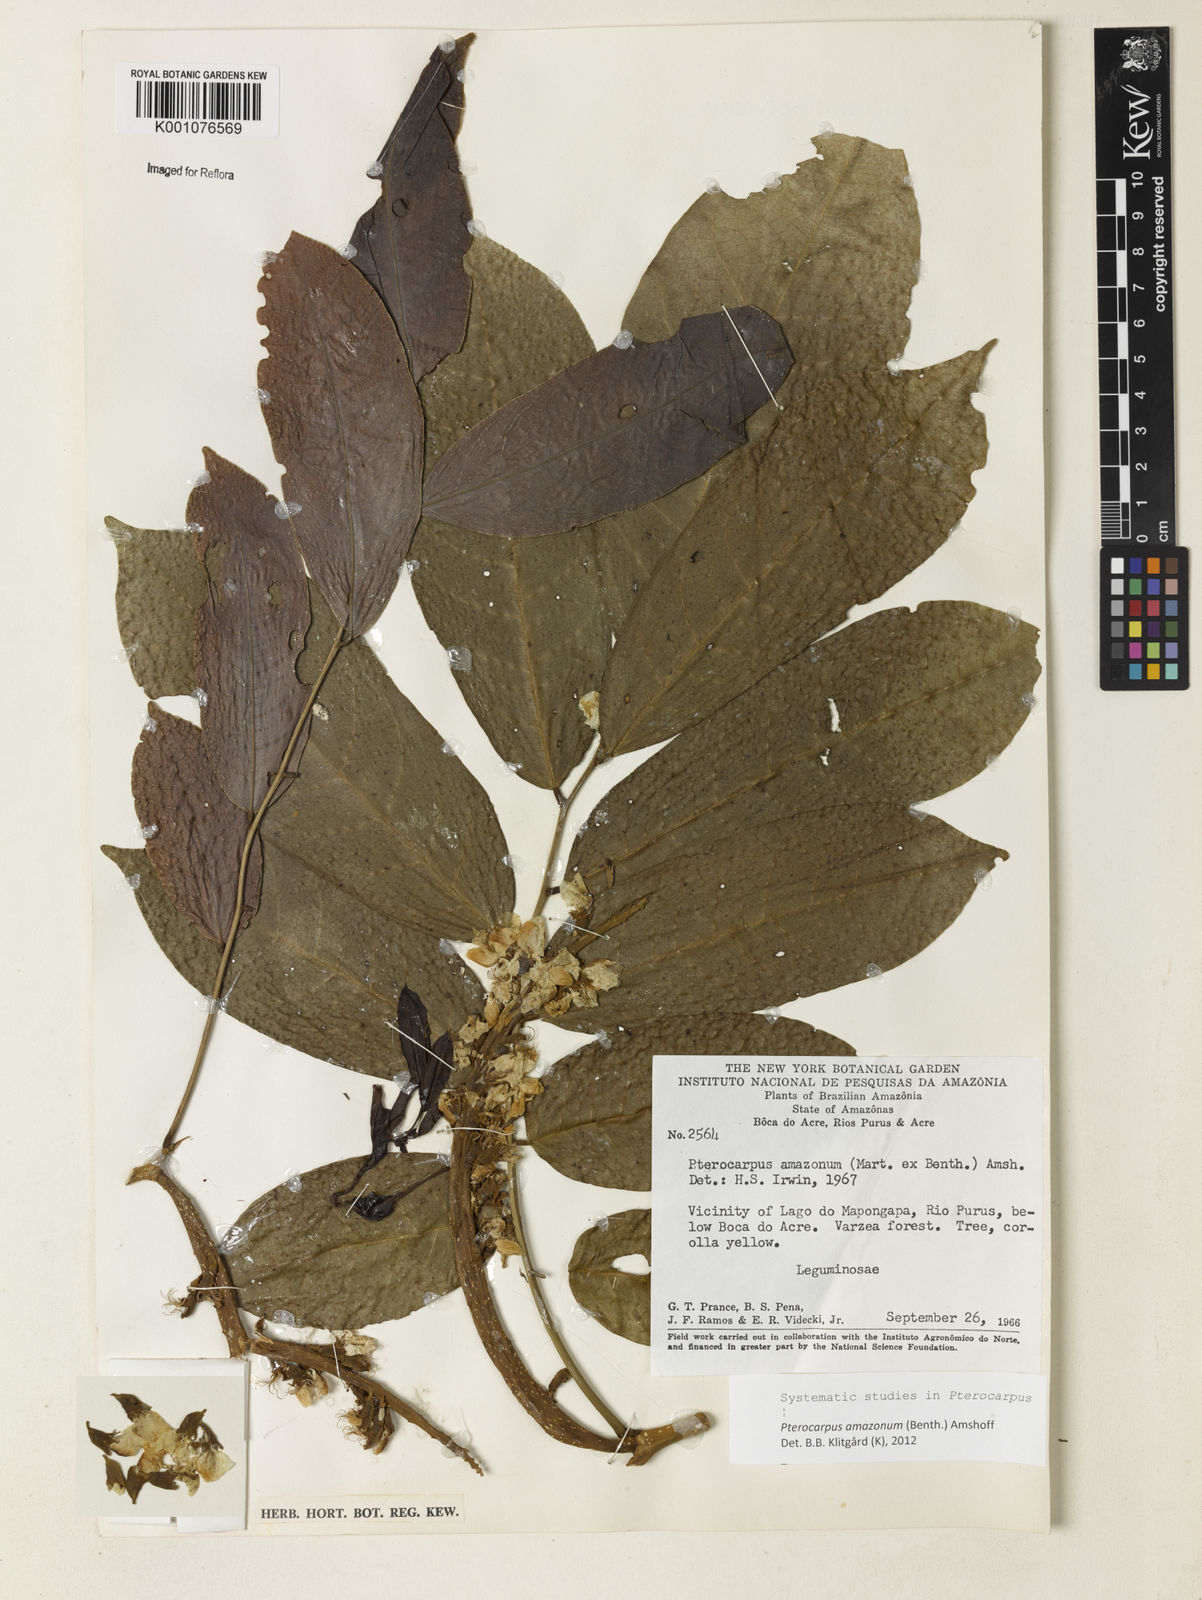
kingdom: Plantae
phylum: Tracheophyta
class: Magnoliopsida
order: Fabales
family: Fabaceae
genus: Pterocarpus
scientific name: Pterocarpus amazonum
